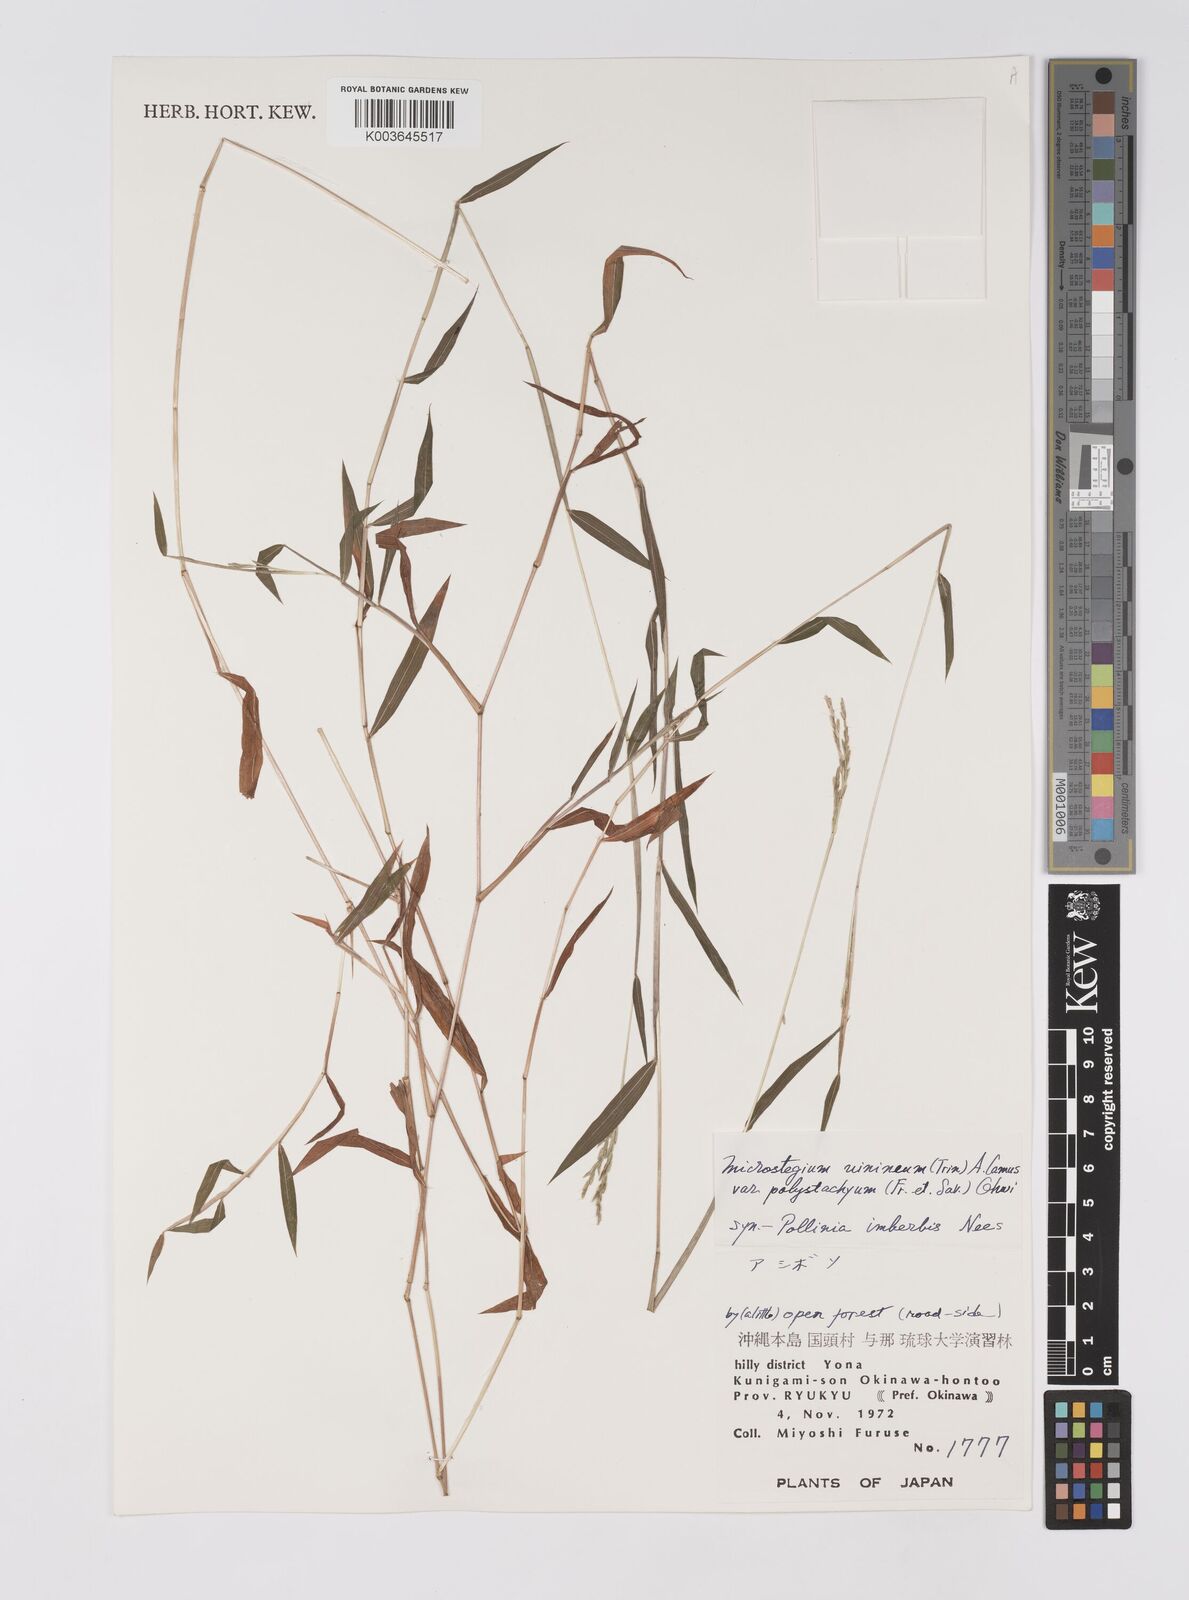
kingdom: Plantae
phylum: Tracheophyta
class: Liliopsida
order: Poales
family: Poaceae
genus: Microstegium
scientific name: Microstegium vimineum
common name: Japanese stiltgrass
